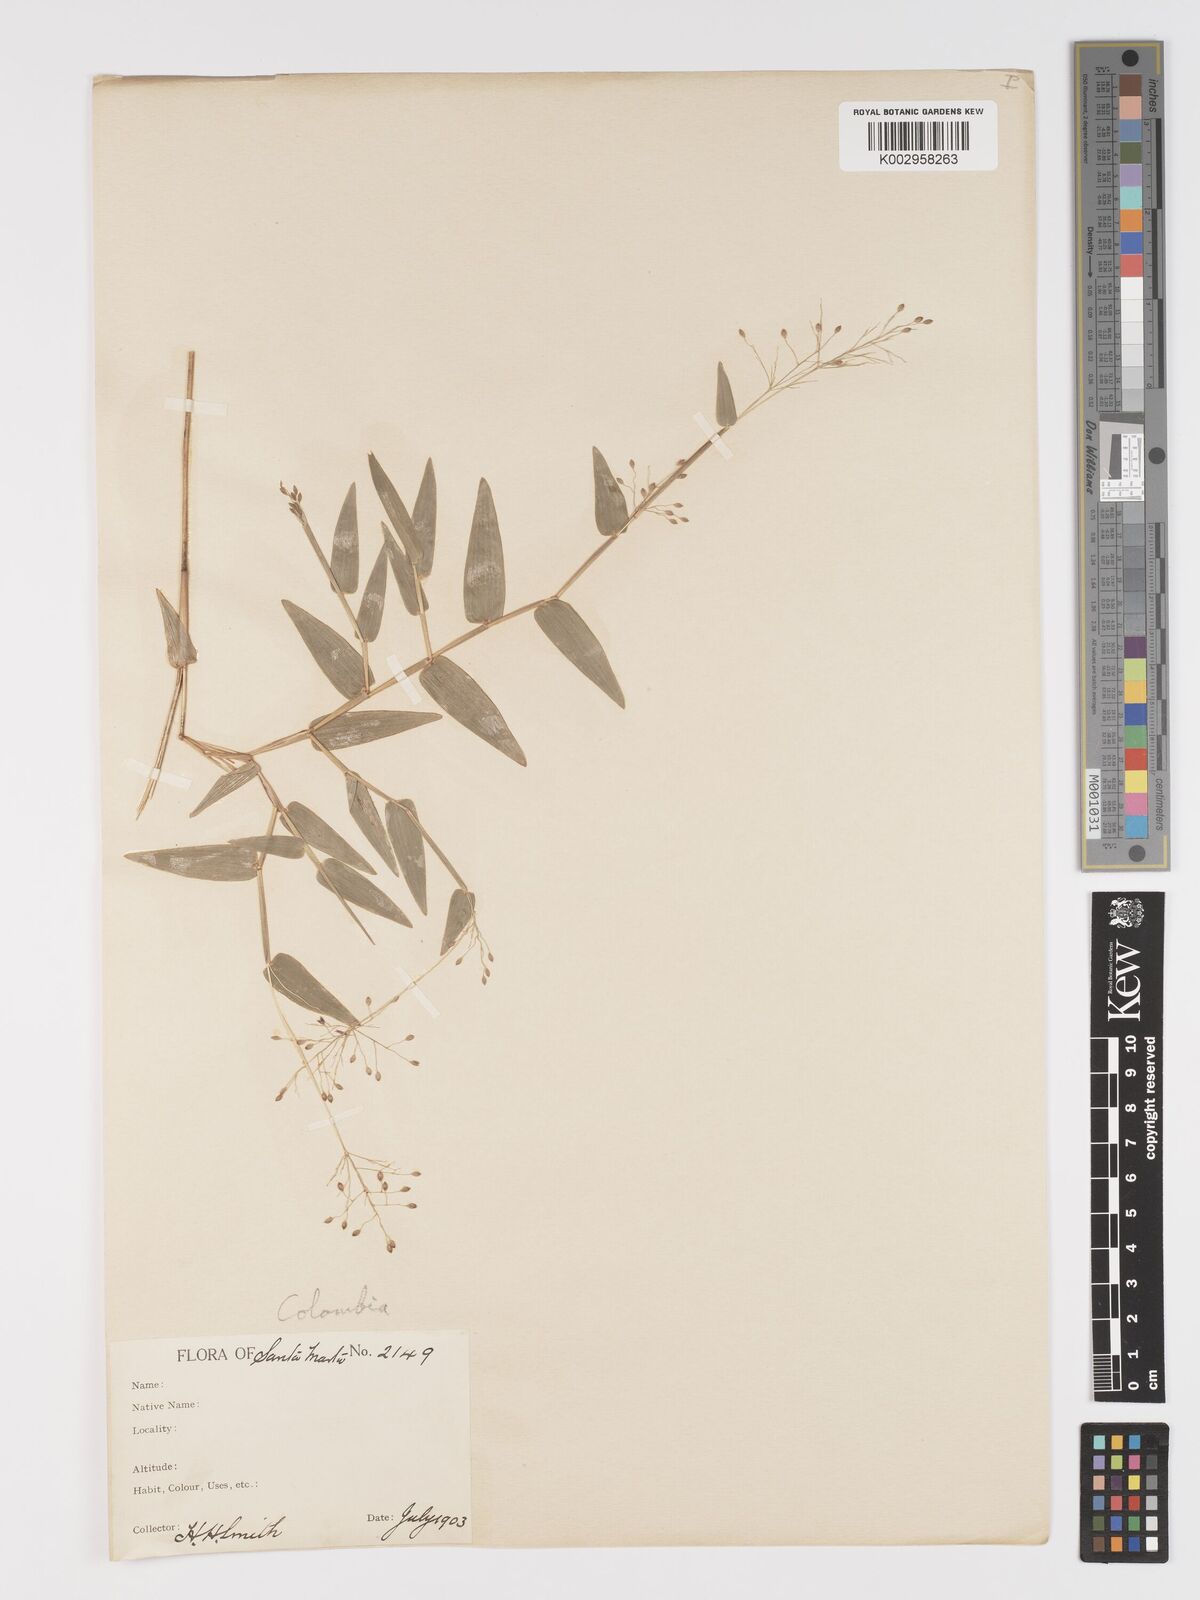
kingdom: Plantae
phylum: Tracheophyta
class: Liliopsida
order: Poales
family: Poaceae
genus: Parodiolyra
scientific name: Parodiolyra lateralis
